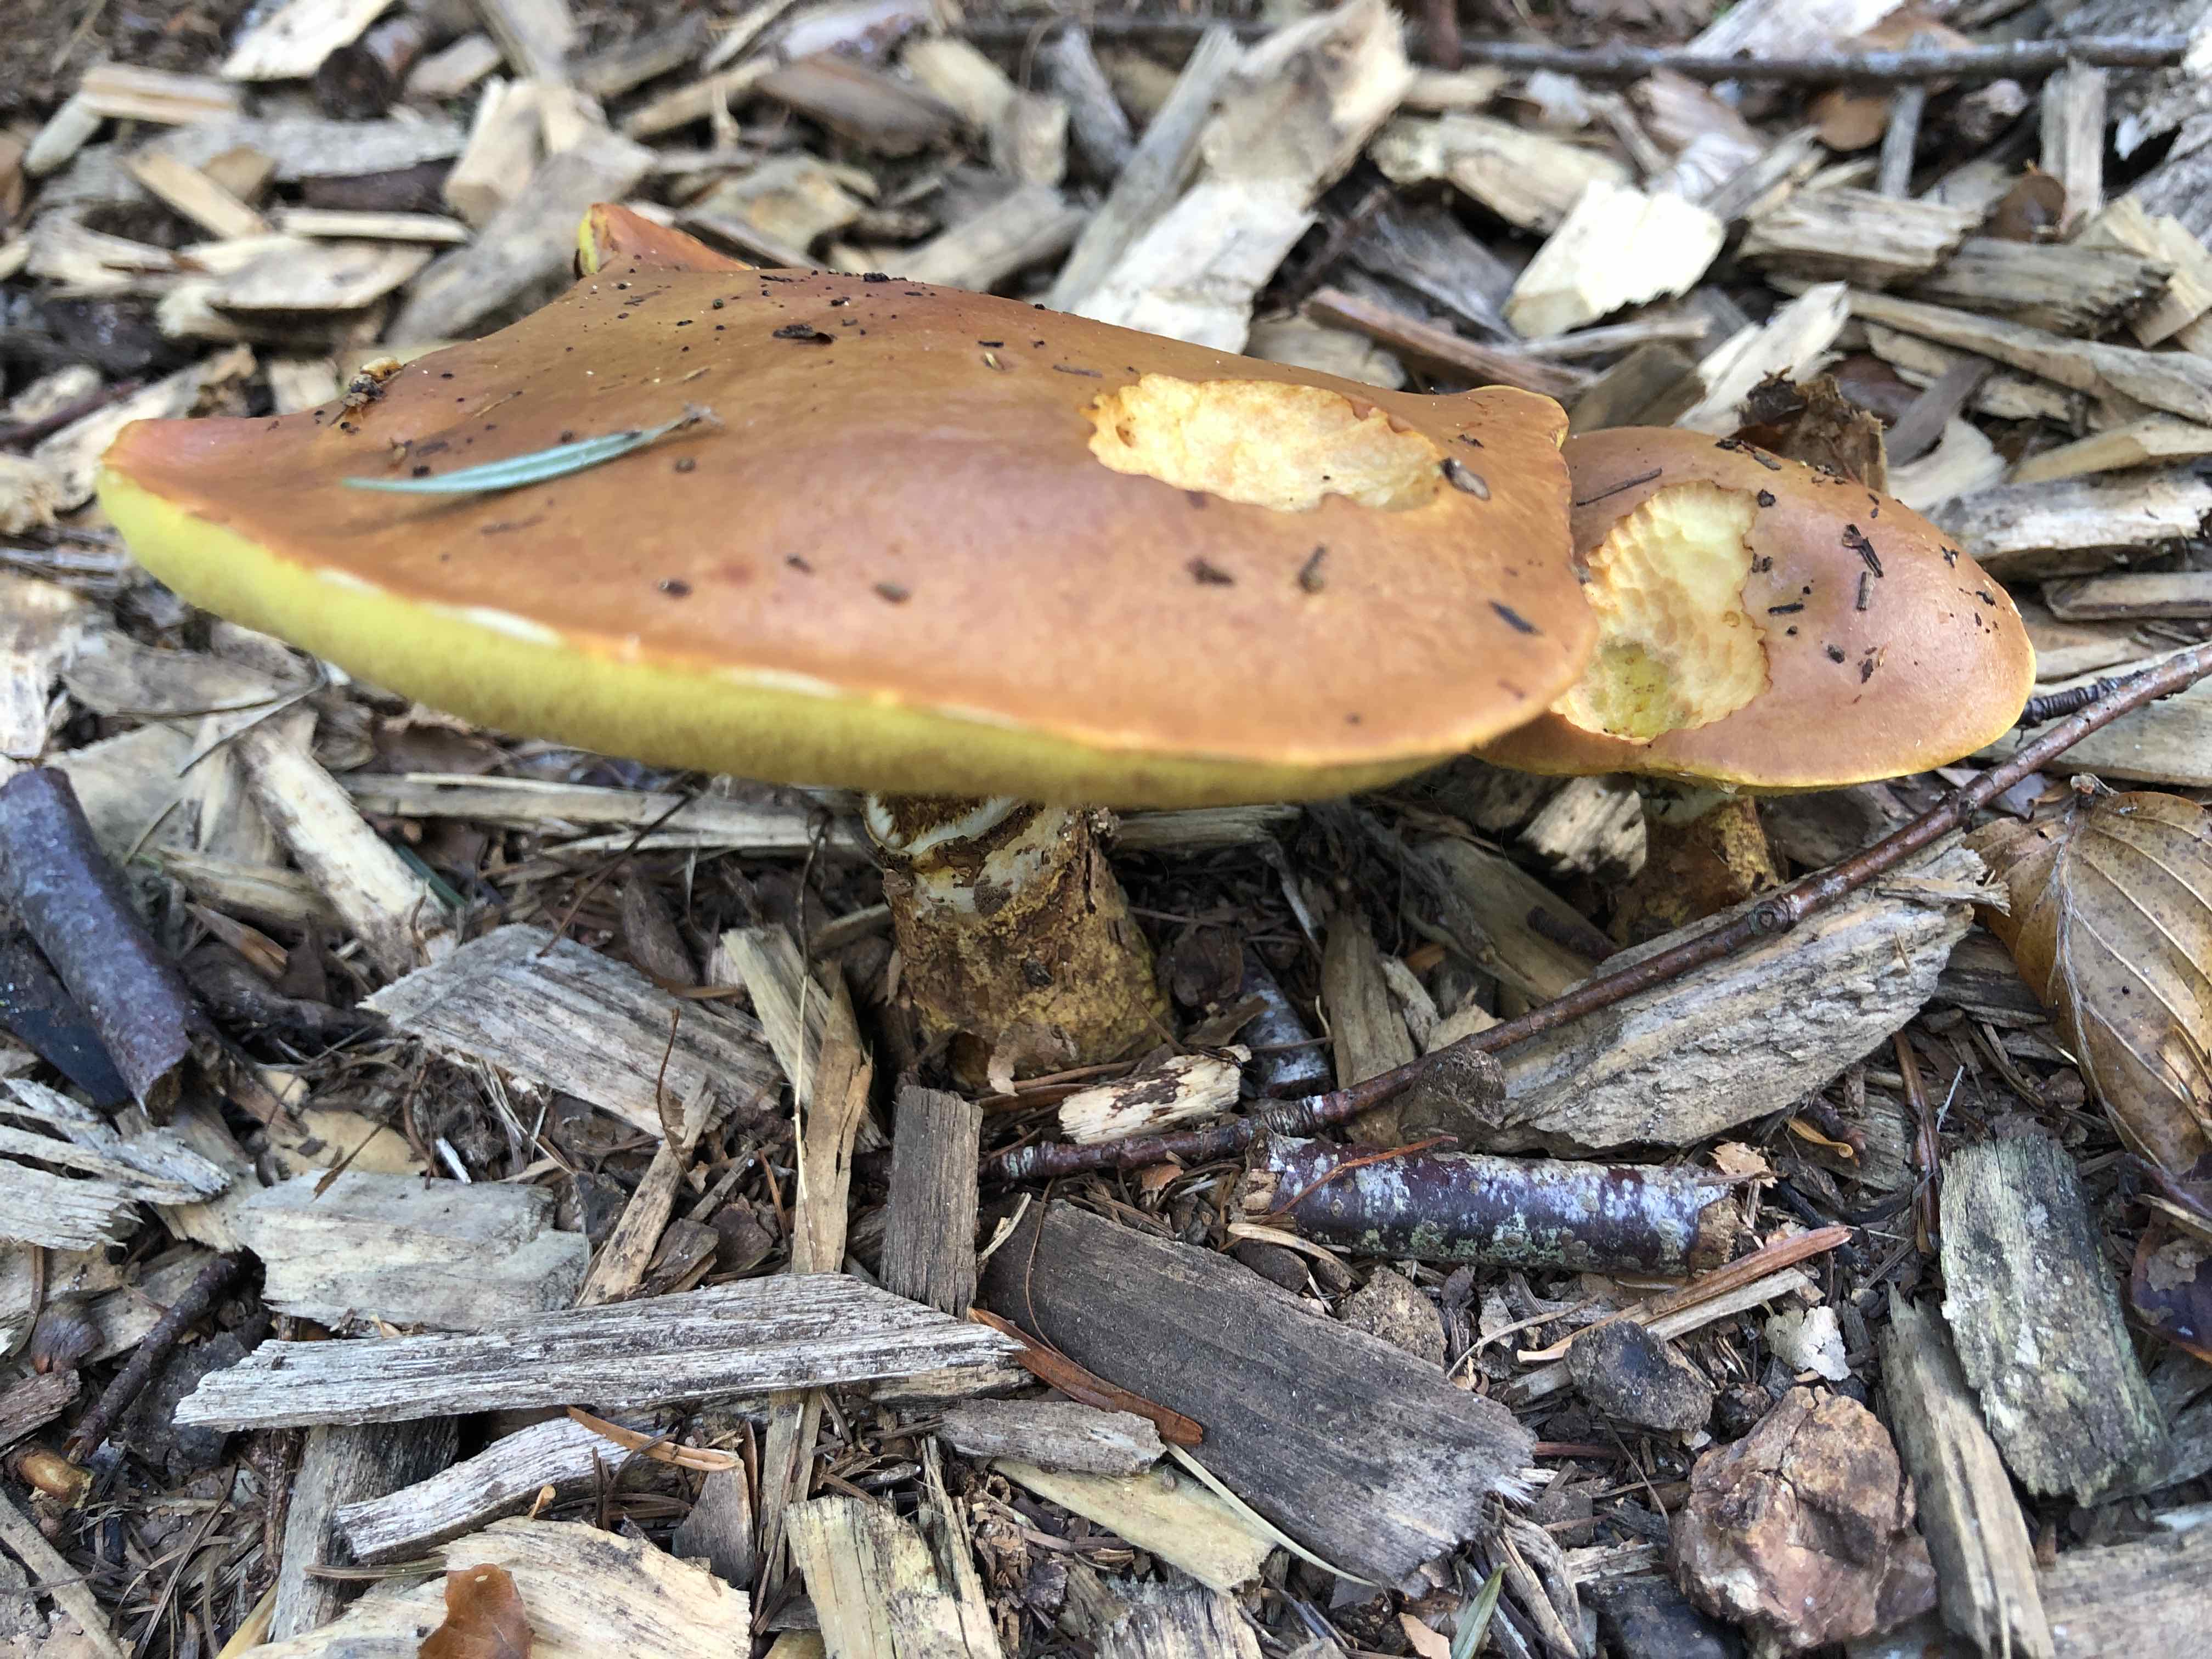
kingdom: Fungi
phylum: Basidiomycota
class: Agaricomycetes
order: Boletales
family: Suillaceae
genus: Suillus
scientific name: Suillus grevillei
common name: lærke-slimrørhat
